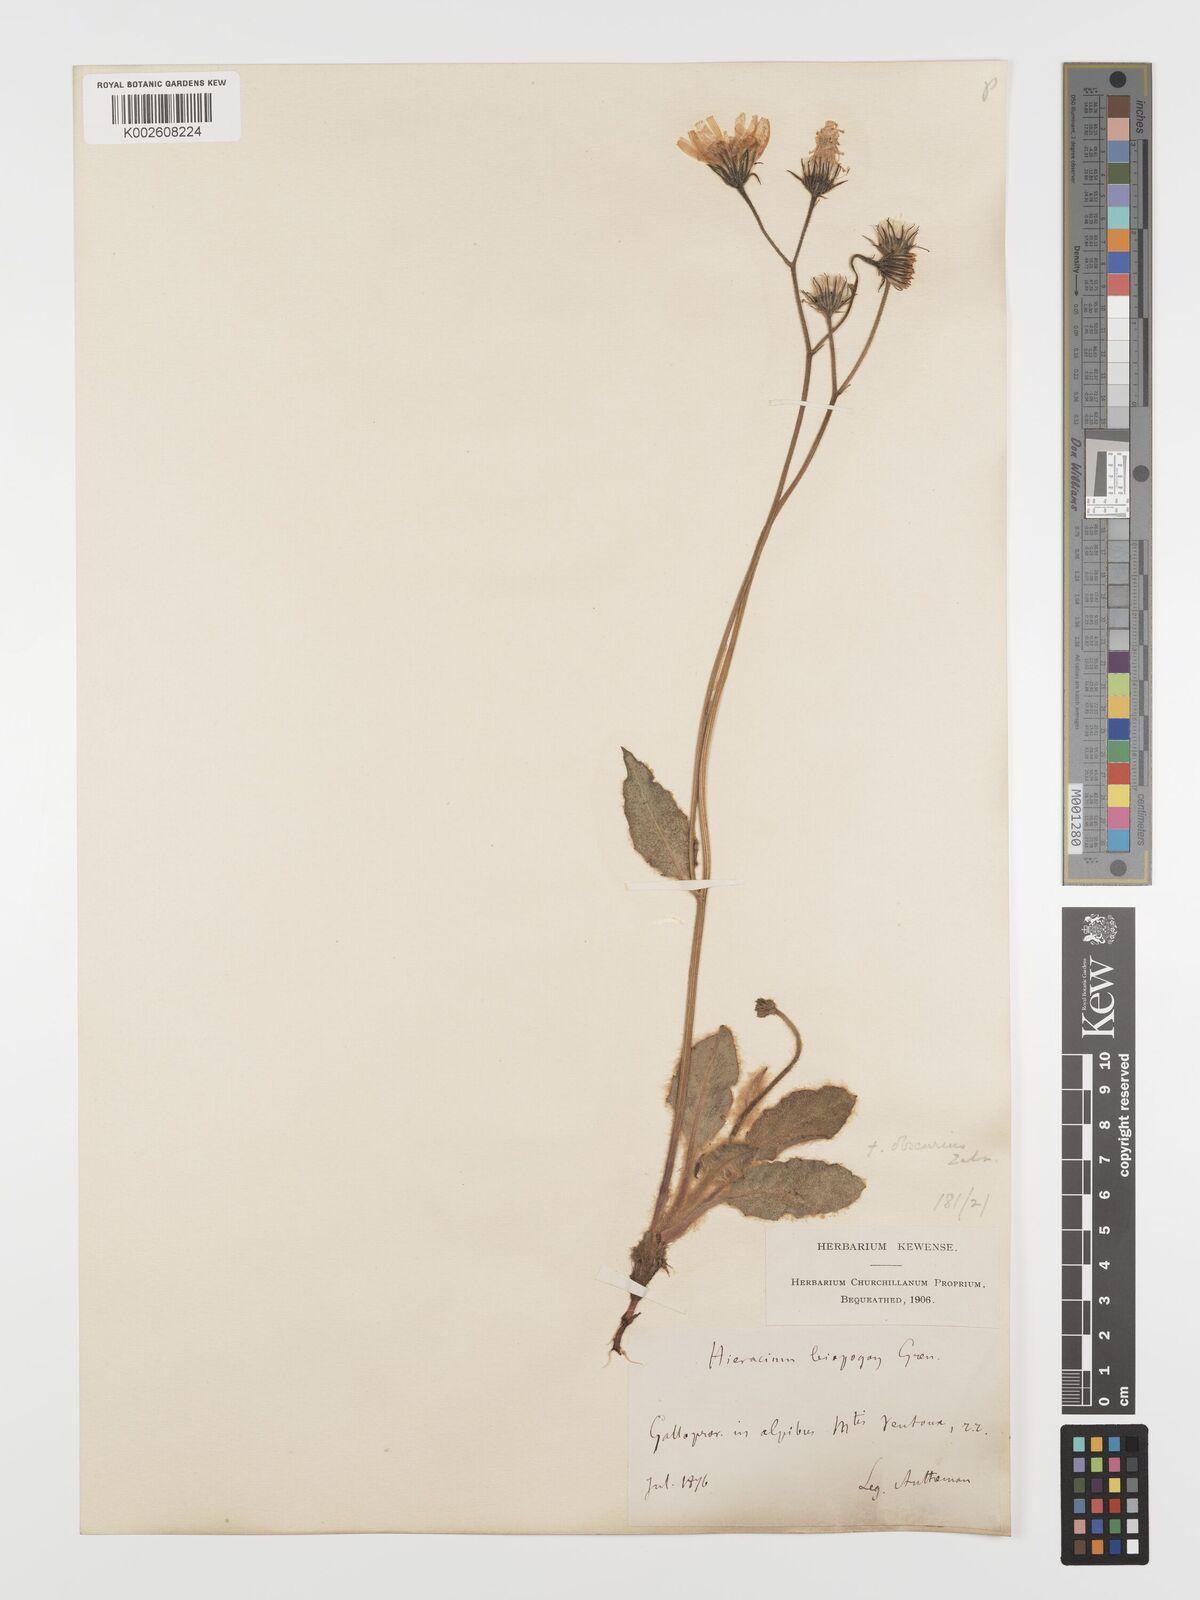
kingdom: Plantae
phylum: Tracheophyta
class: Magnoliopsida
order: Asterales
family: Asteraceae
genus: Hieracium
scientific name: Hieracium leiopogon
